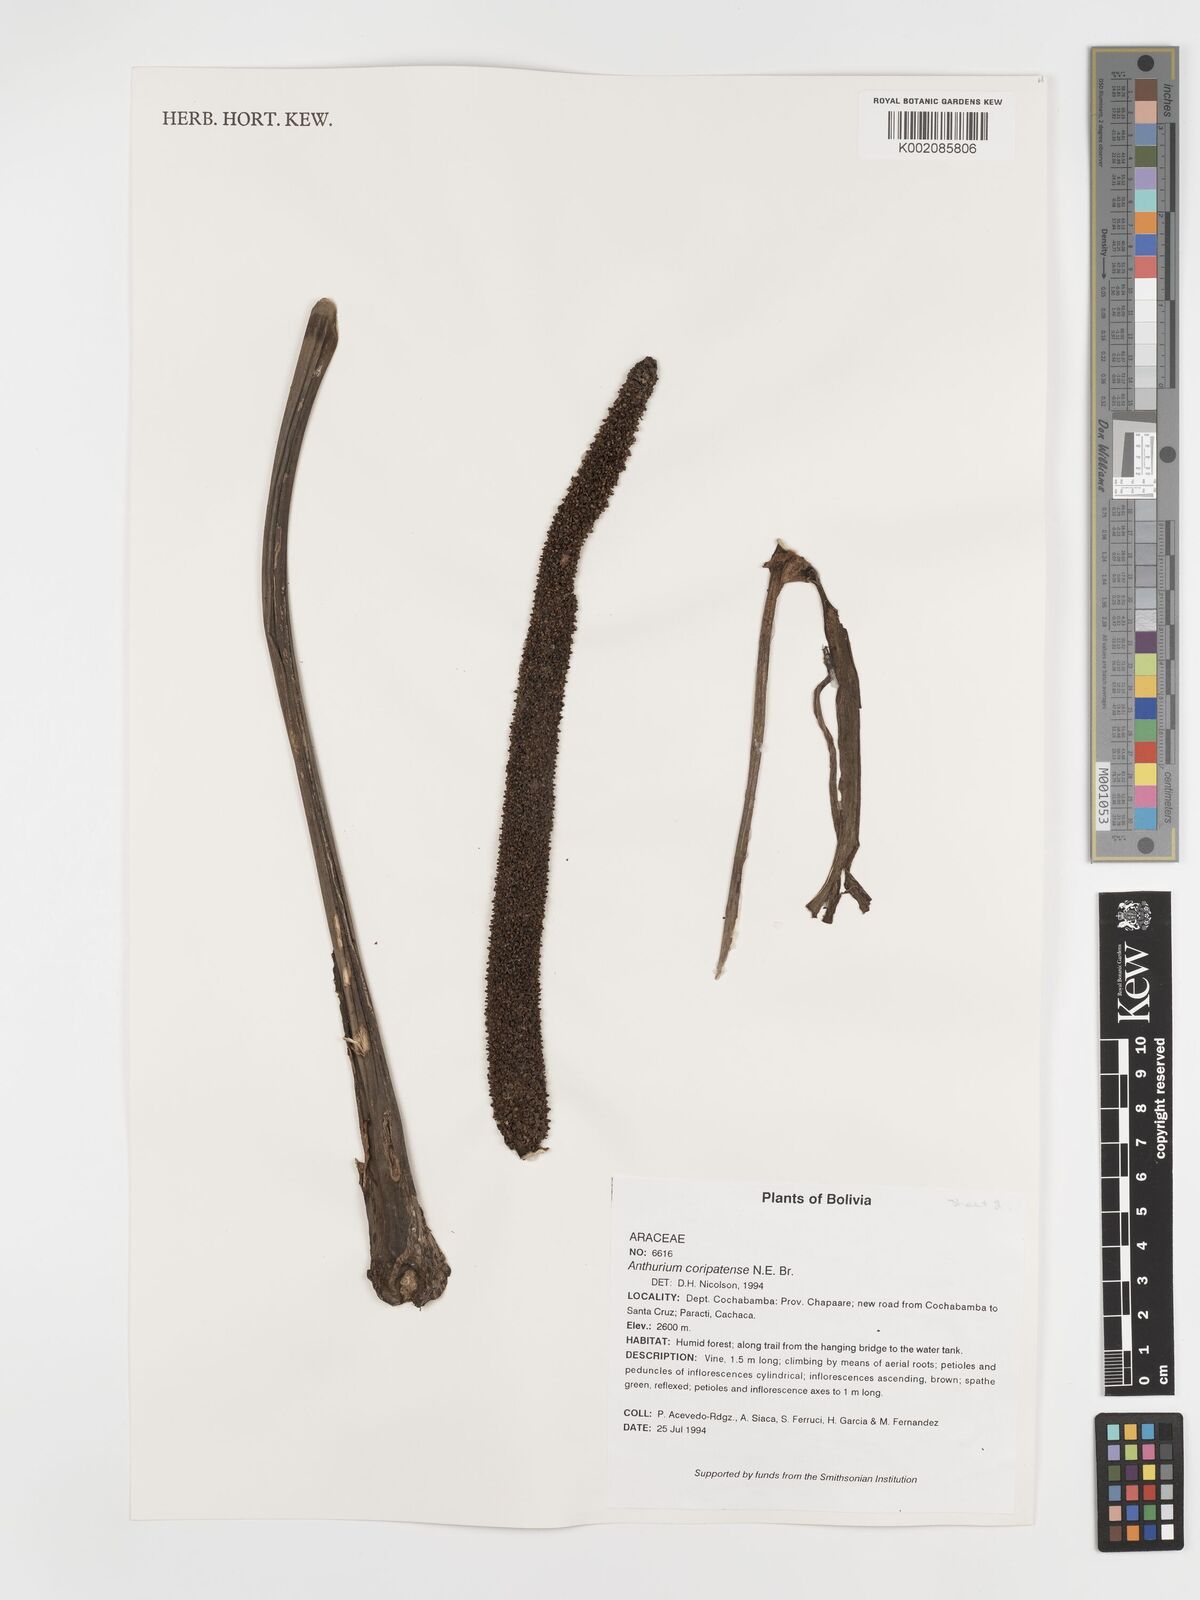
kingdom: Plantae
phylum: Tracheophyta
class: Liliopsida
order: Alismatales
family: Araceae
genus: Anthurium
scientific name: Anthurium coripatense
